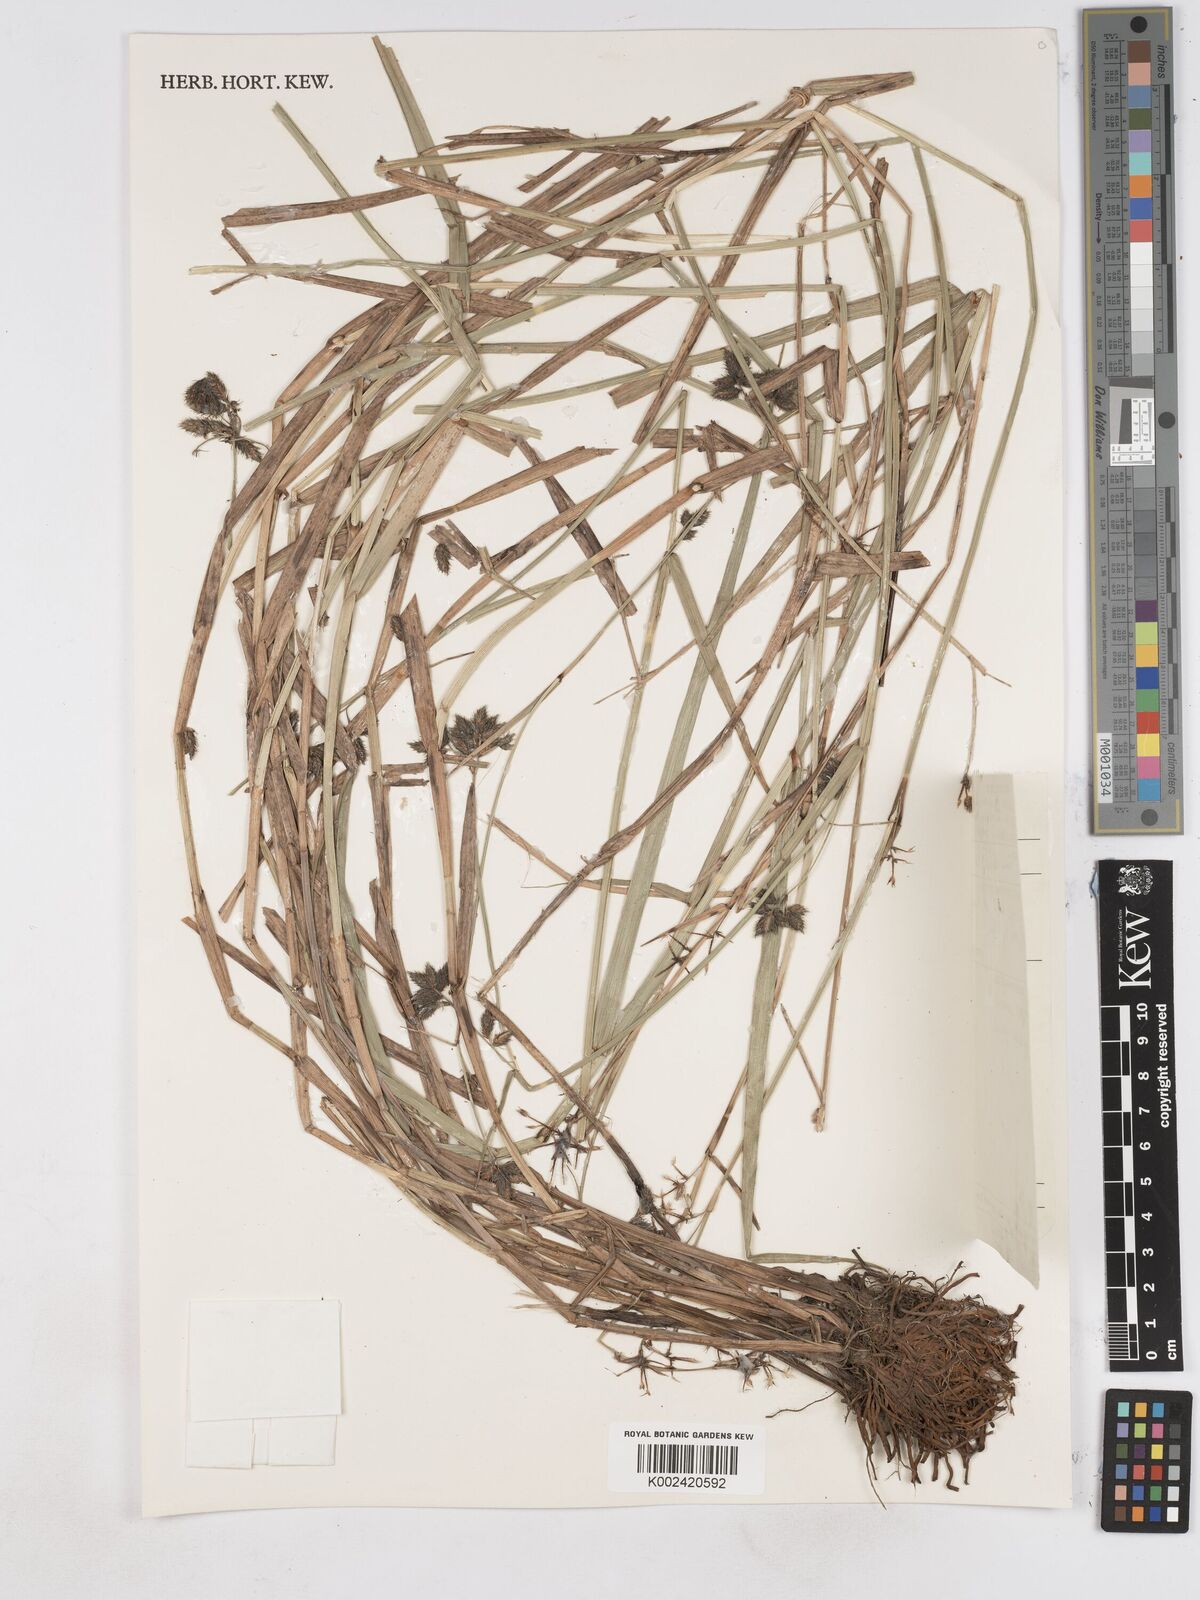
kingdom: Plantae
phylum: Tracheophyta
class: Liliopsida
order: Poales
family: Cyperaceae
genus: Fuirena
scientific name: Fuirena stricta
